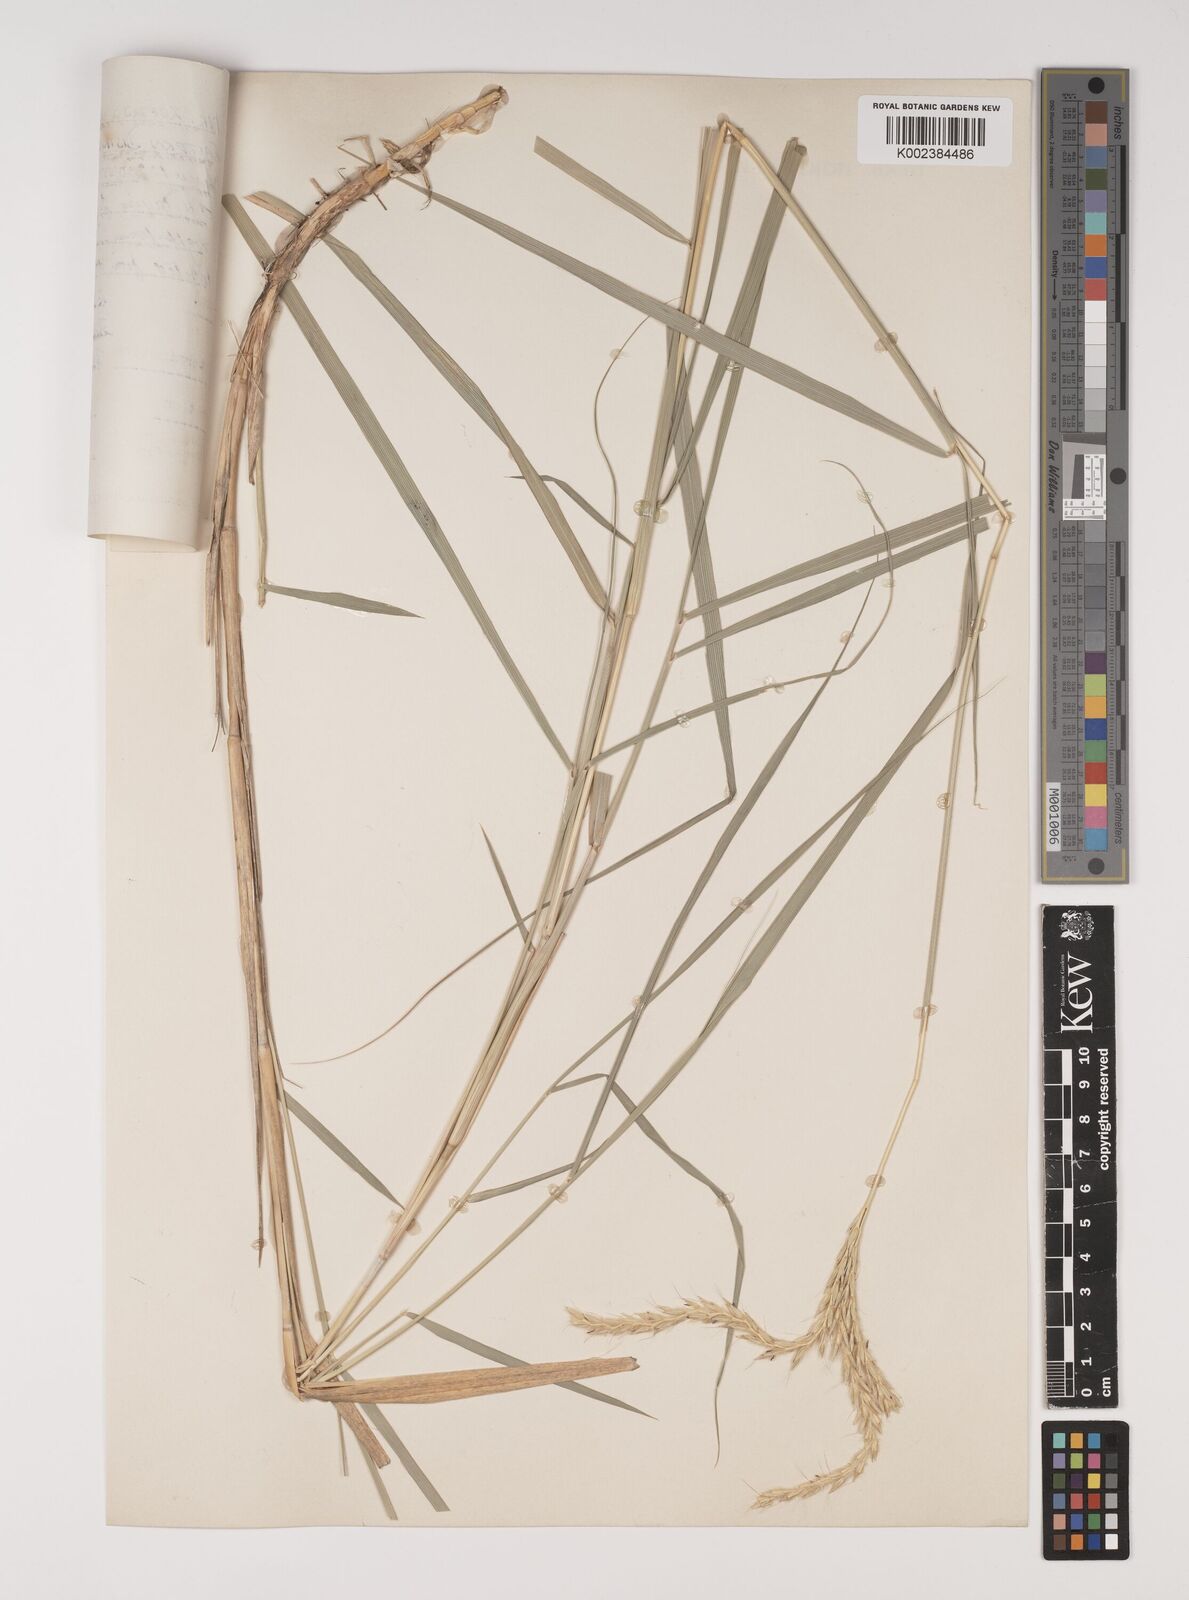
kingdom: Plantae
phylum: Tracheophyta
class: Liliopsida
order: Poales
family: Poaceae
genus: Ischaemum
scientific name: Ischaemum afrum
